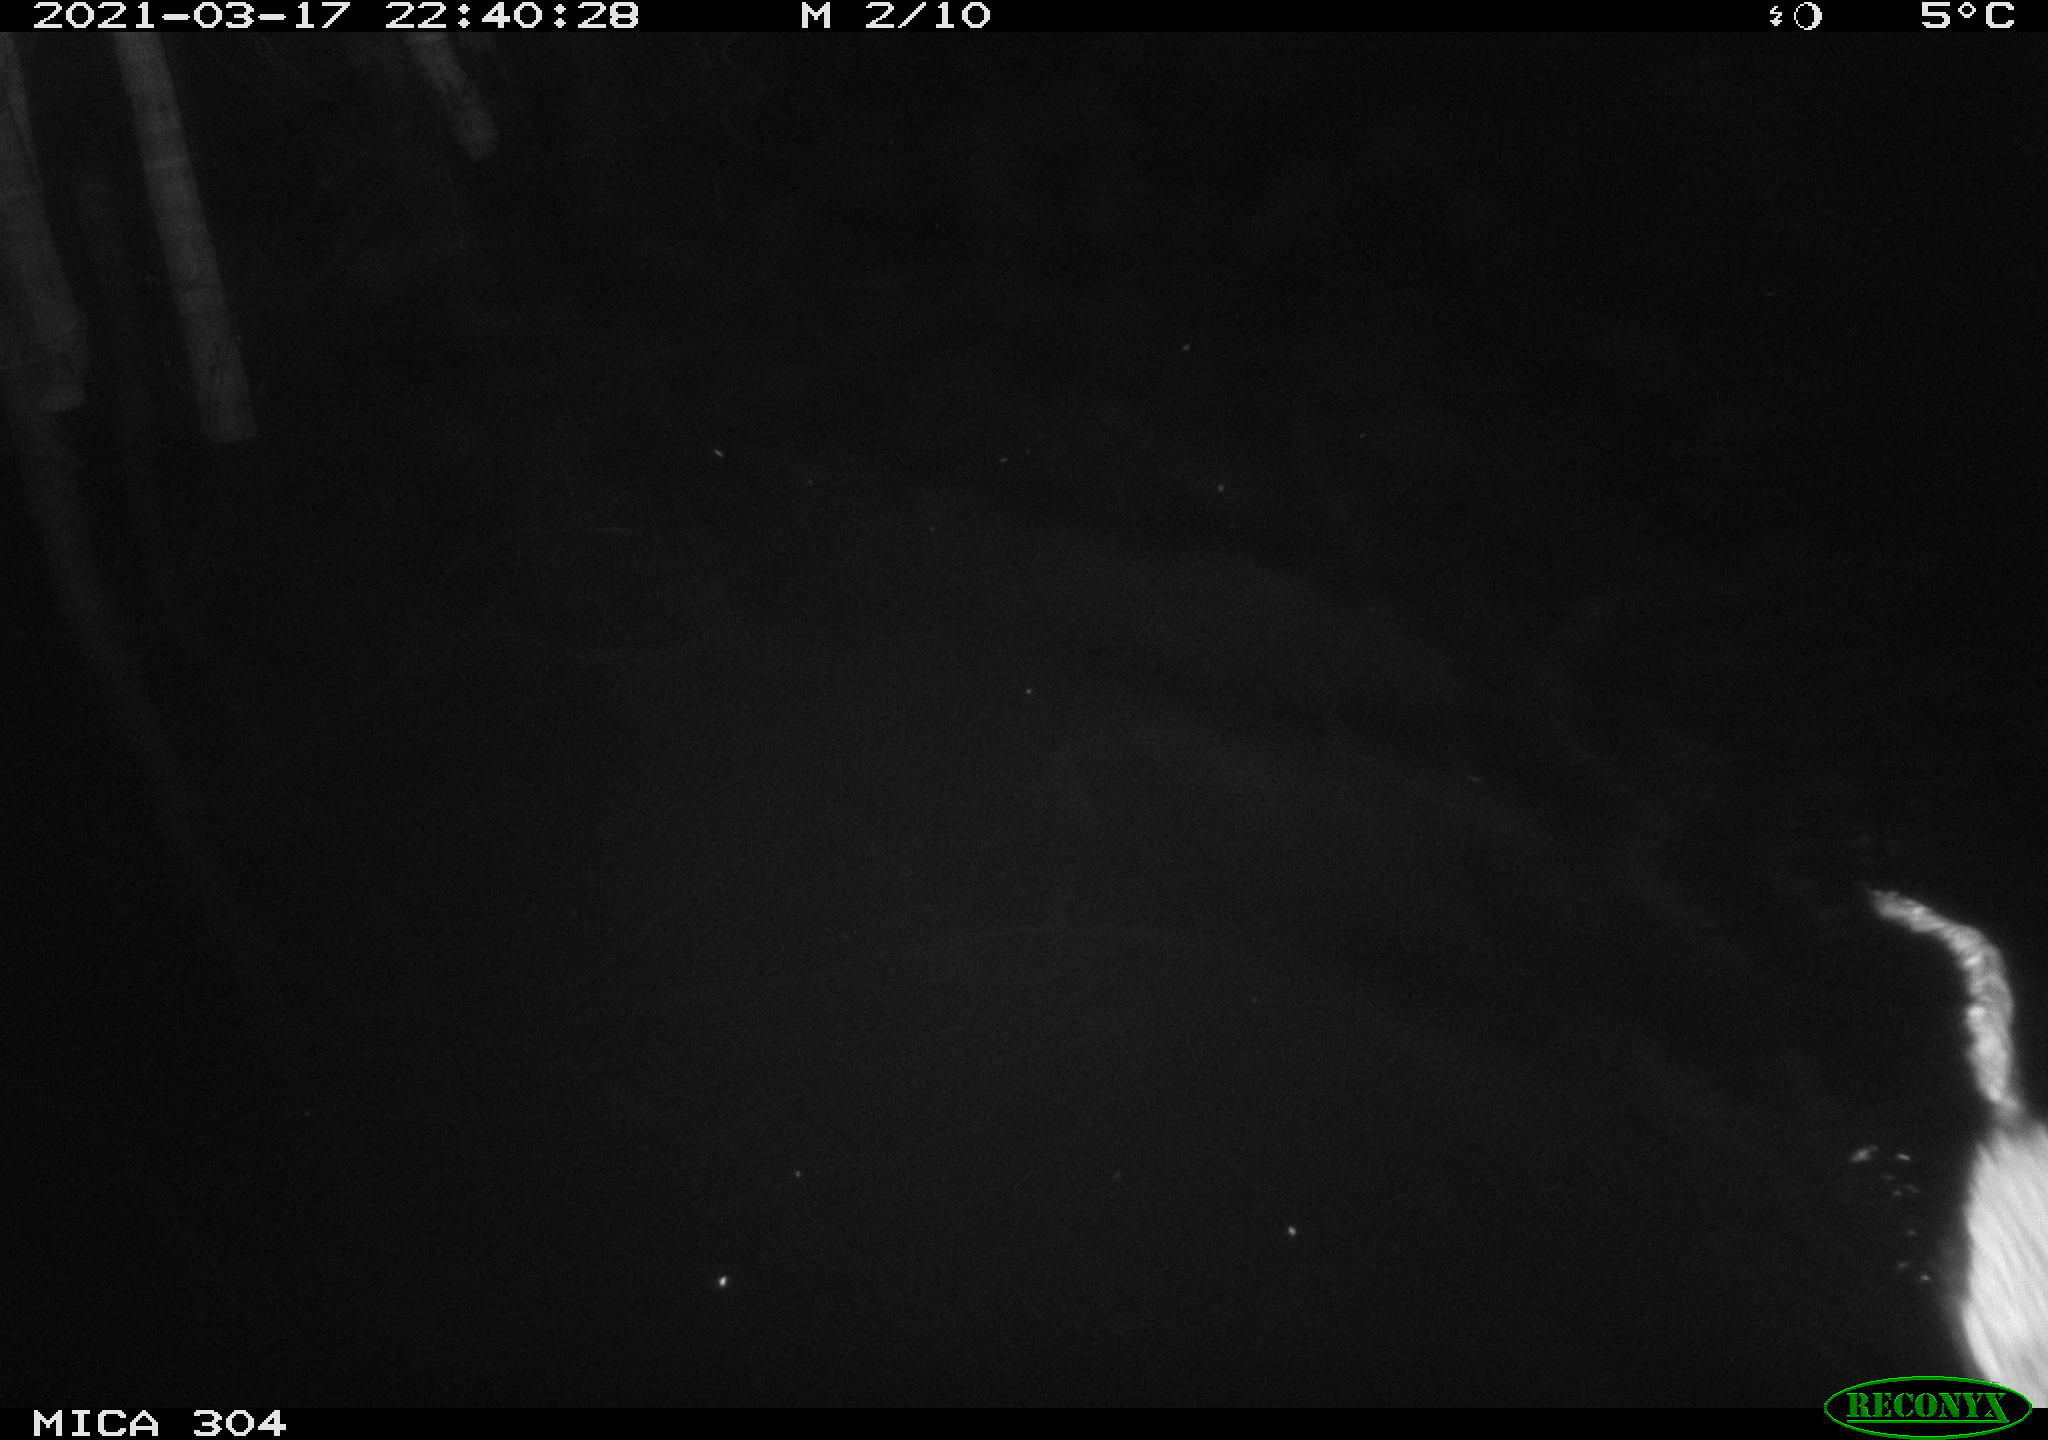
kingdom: Animalia
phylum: Chordata
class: Mammalia
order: Rodentia
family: Cricetidae
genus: Ondatra
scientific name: Ondatra zibethicus
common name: Muskrat
